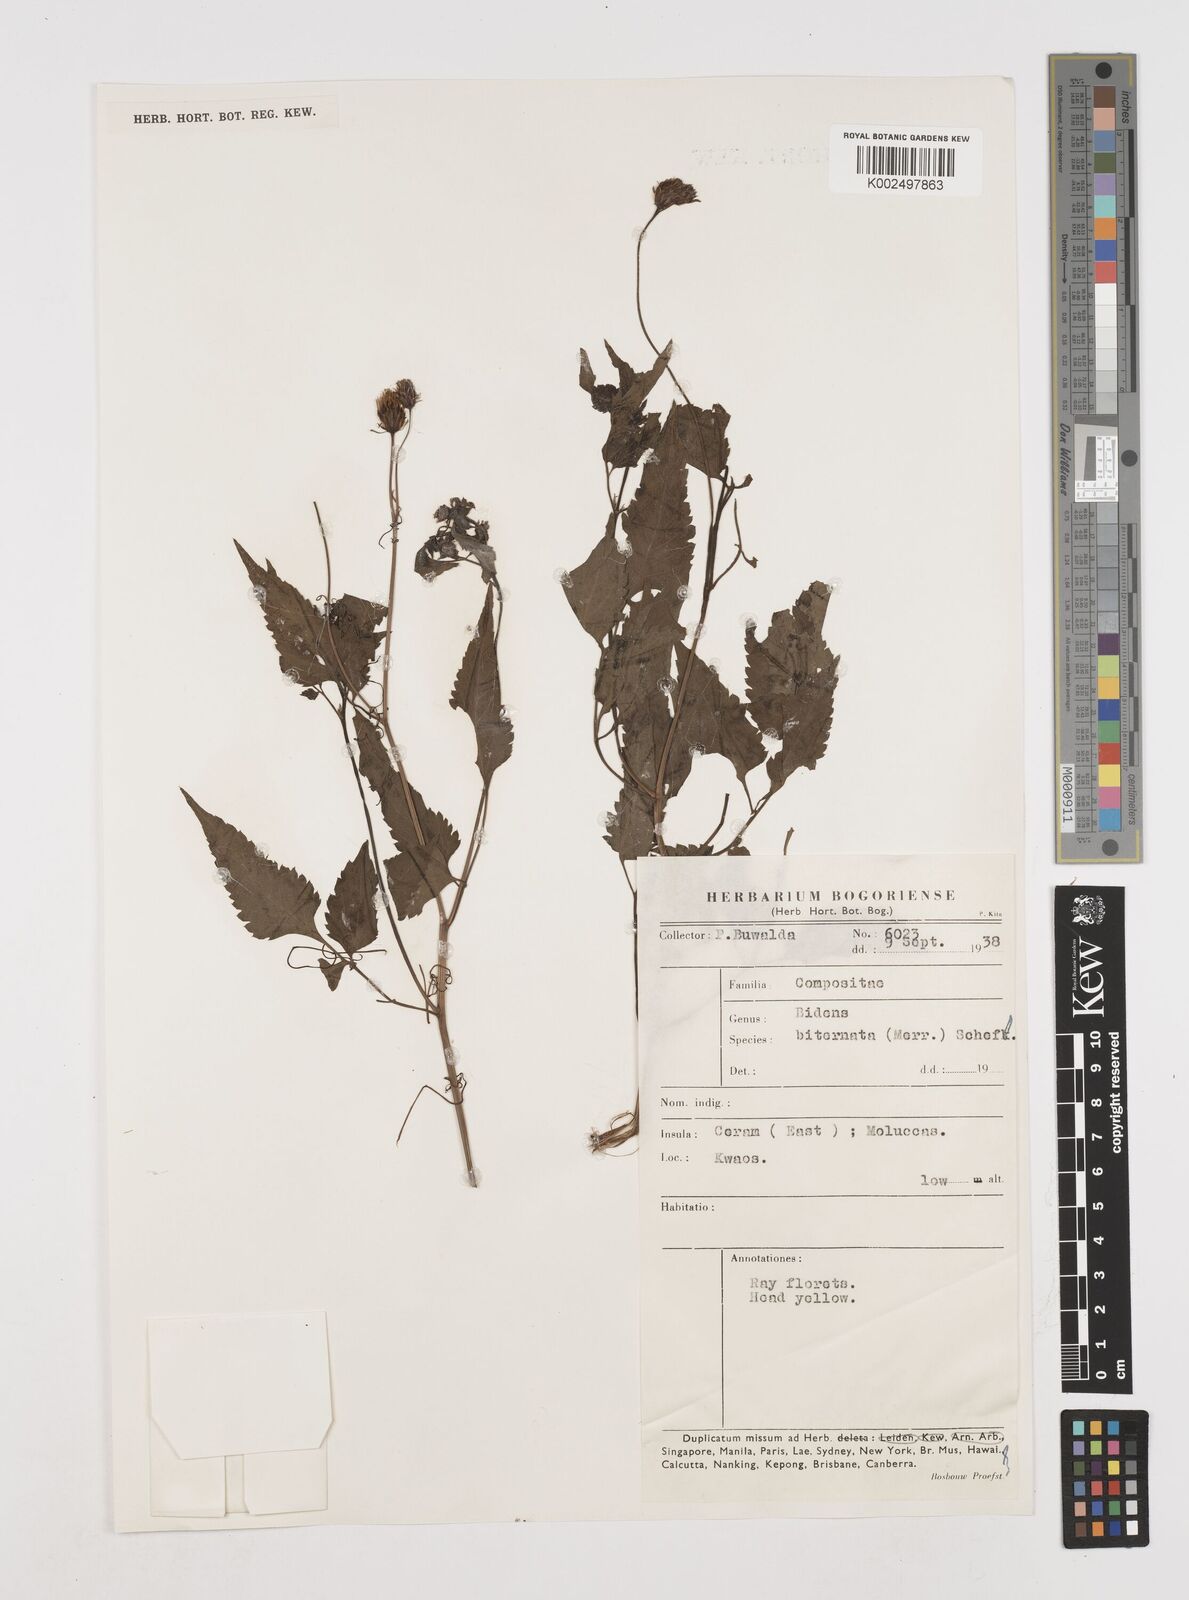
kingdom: Plantae
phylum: Tracheophyta
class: Magnoliopsida
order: Asterales
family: Asteraceae
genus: Bidens
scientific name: Bidens biternata
